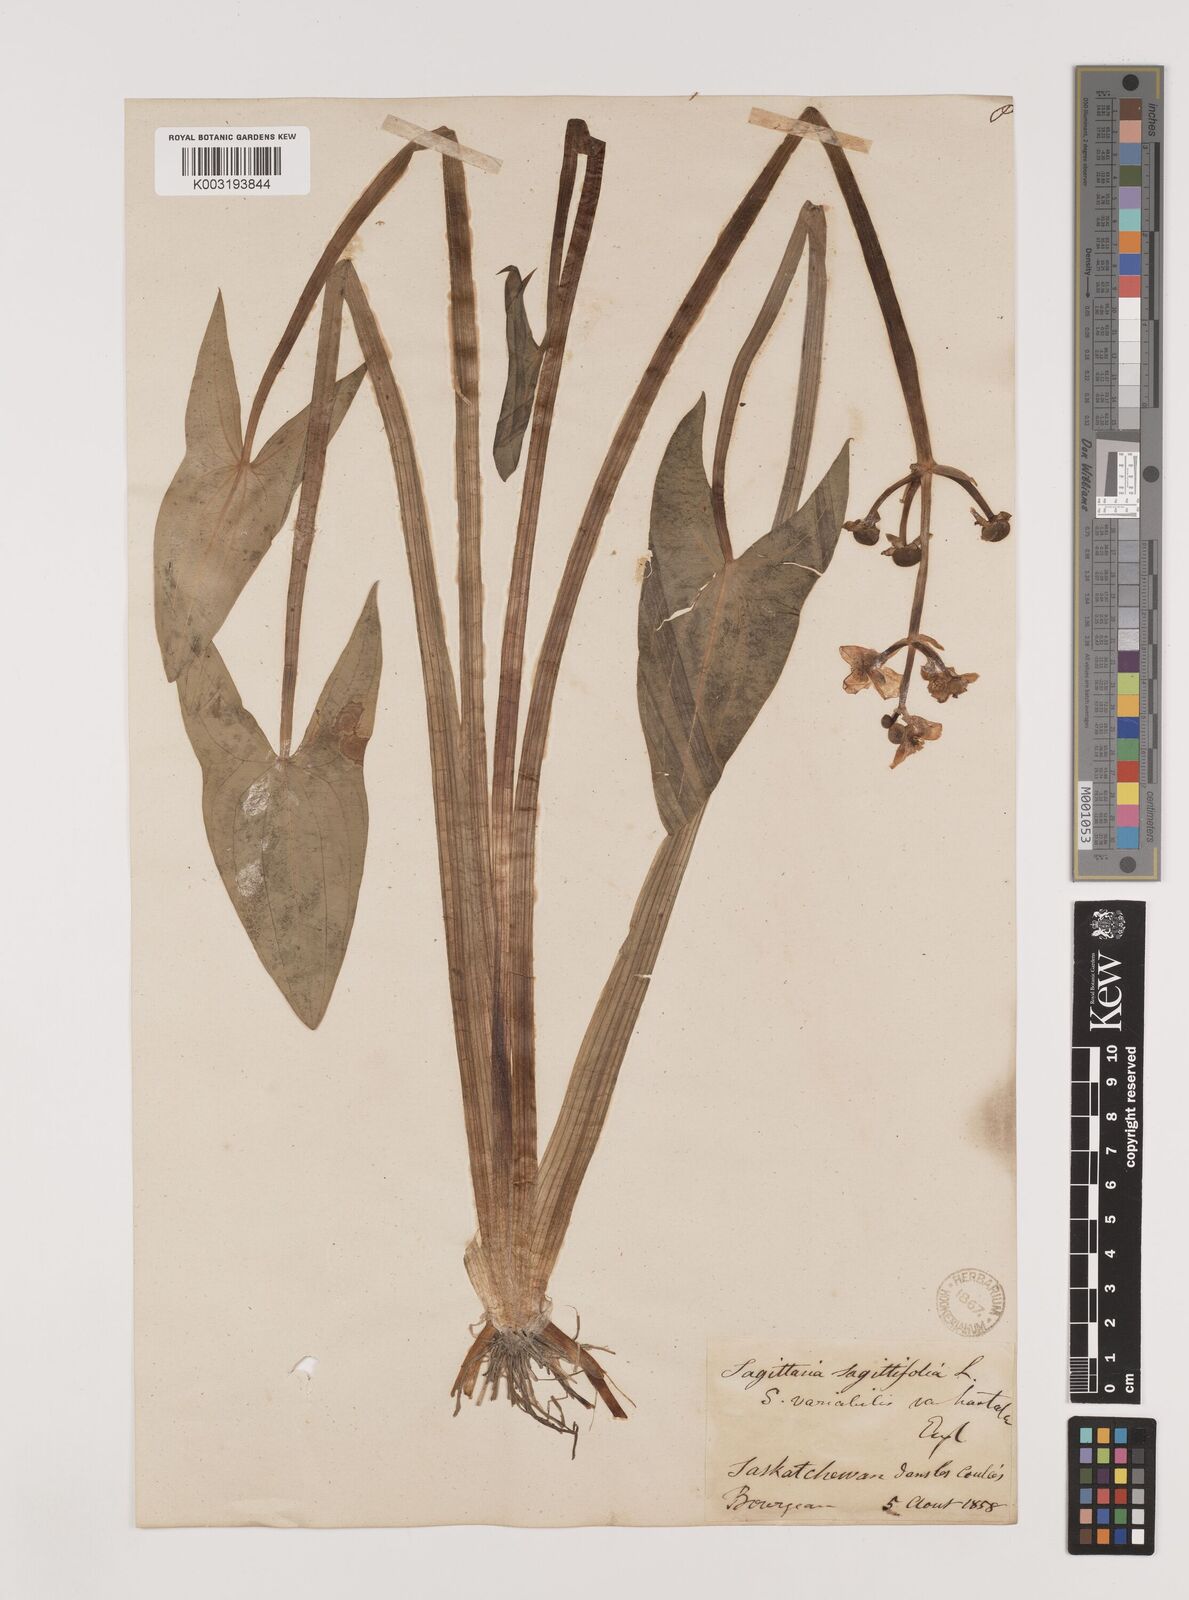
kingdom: Plantae
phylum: Tracheophyta
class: Liliopsida
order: Alismatales
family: Alismataceae
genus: Sagittaria
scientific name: Sagittaria latifolia
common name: Duck-potato
